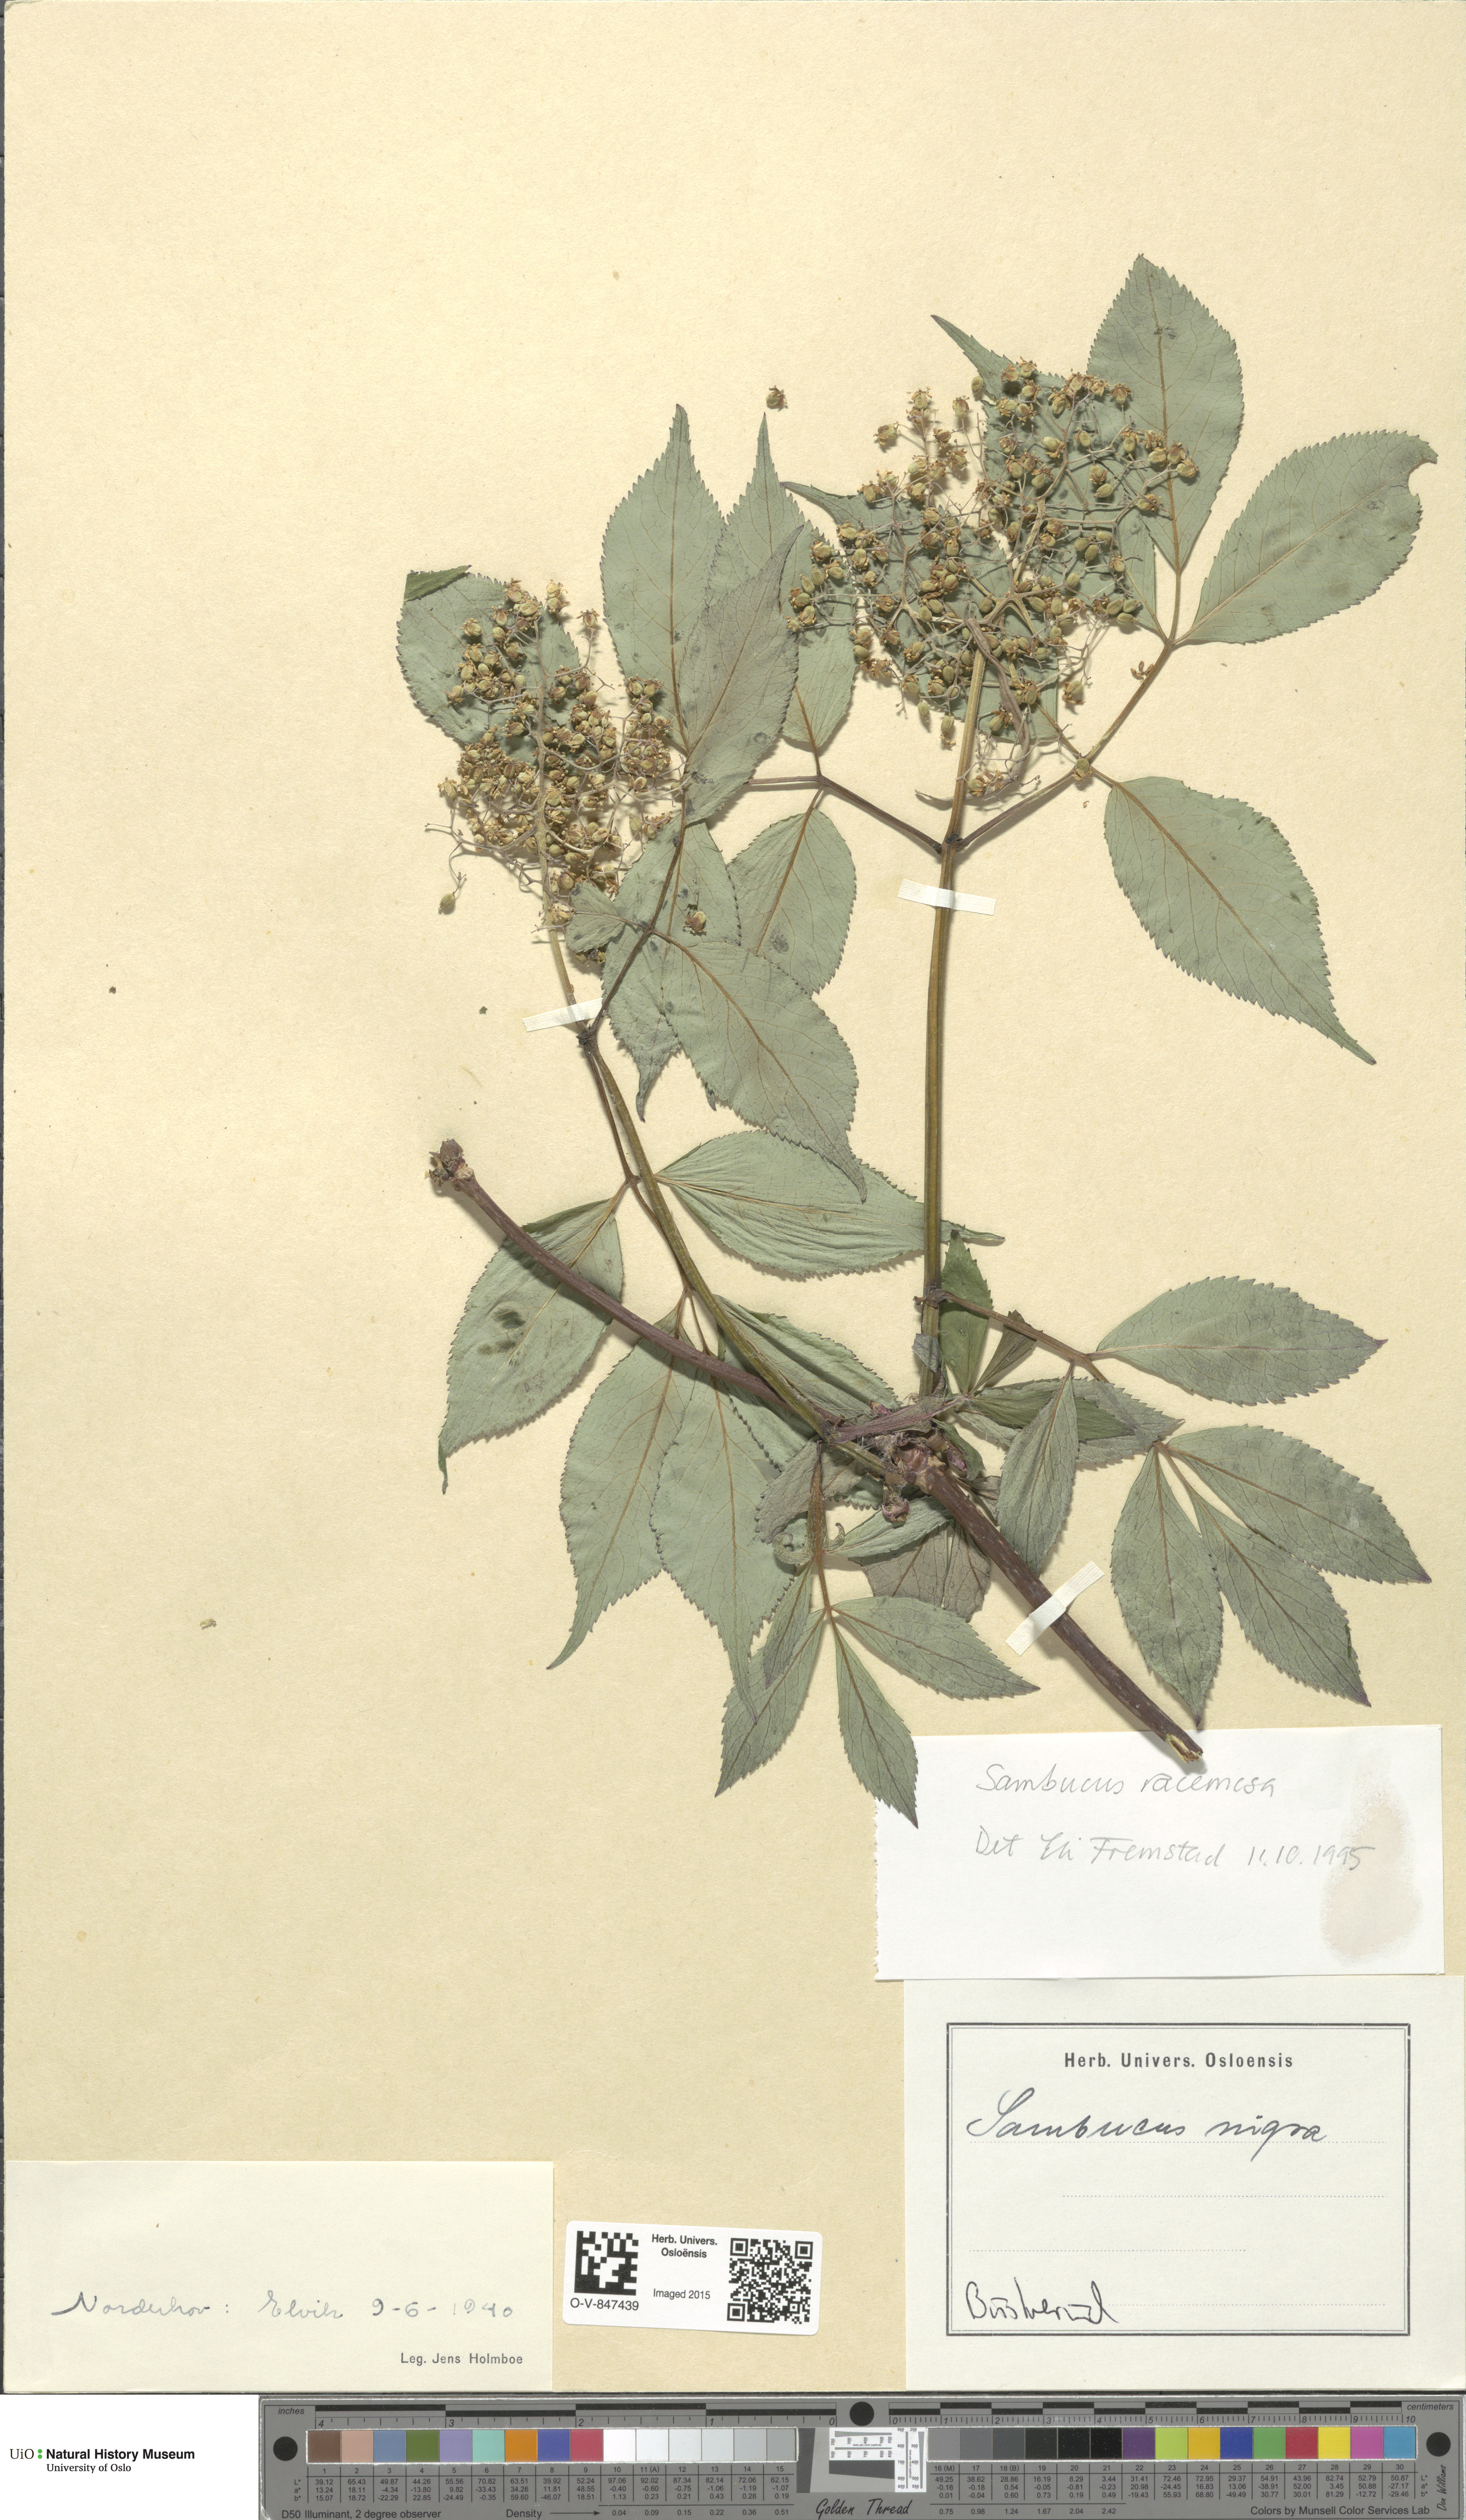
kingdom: Plantae
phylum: Tracheophyta
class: Magnoliopsida
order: Dipsacales
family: Viburnaceae
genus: Sambucus
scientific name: Sambucus racemosa
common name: Red-berried elder
